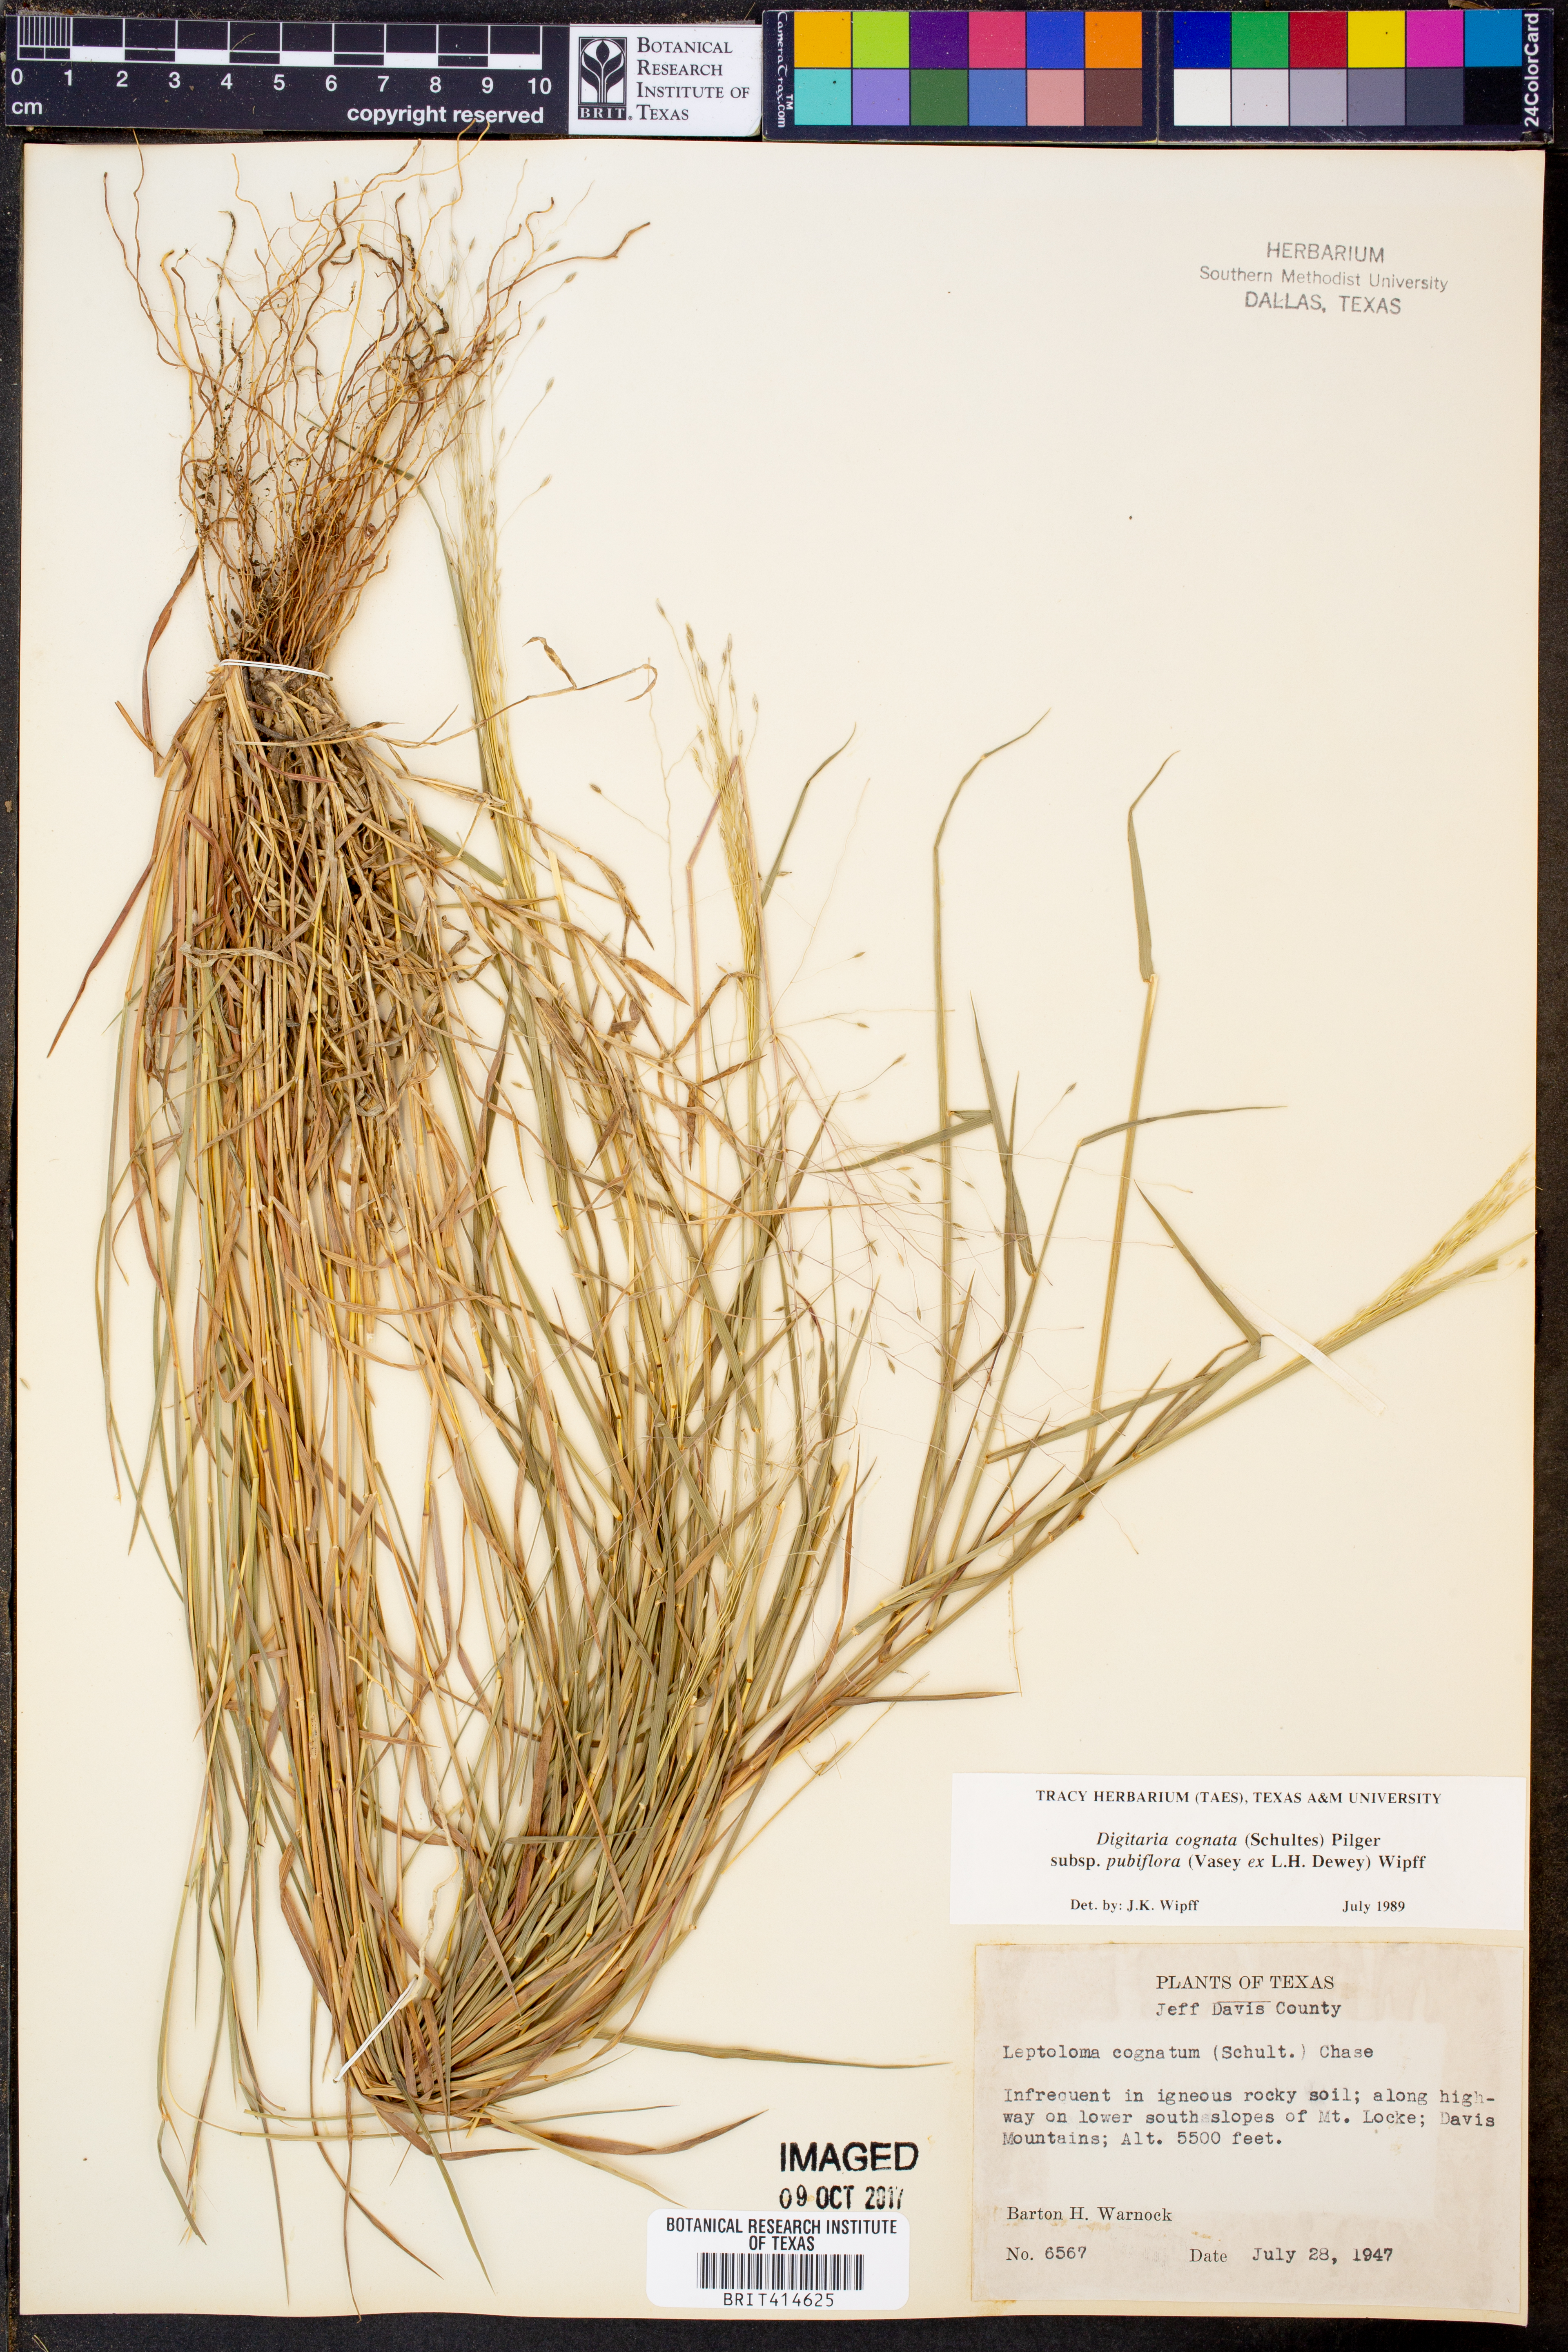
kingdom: Plantae
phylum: Tracheophyta
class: Liliopsida
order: Poales
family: Poaceae
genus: Digitaria
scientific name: Digitaria cognata
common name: Fall witchgrass
